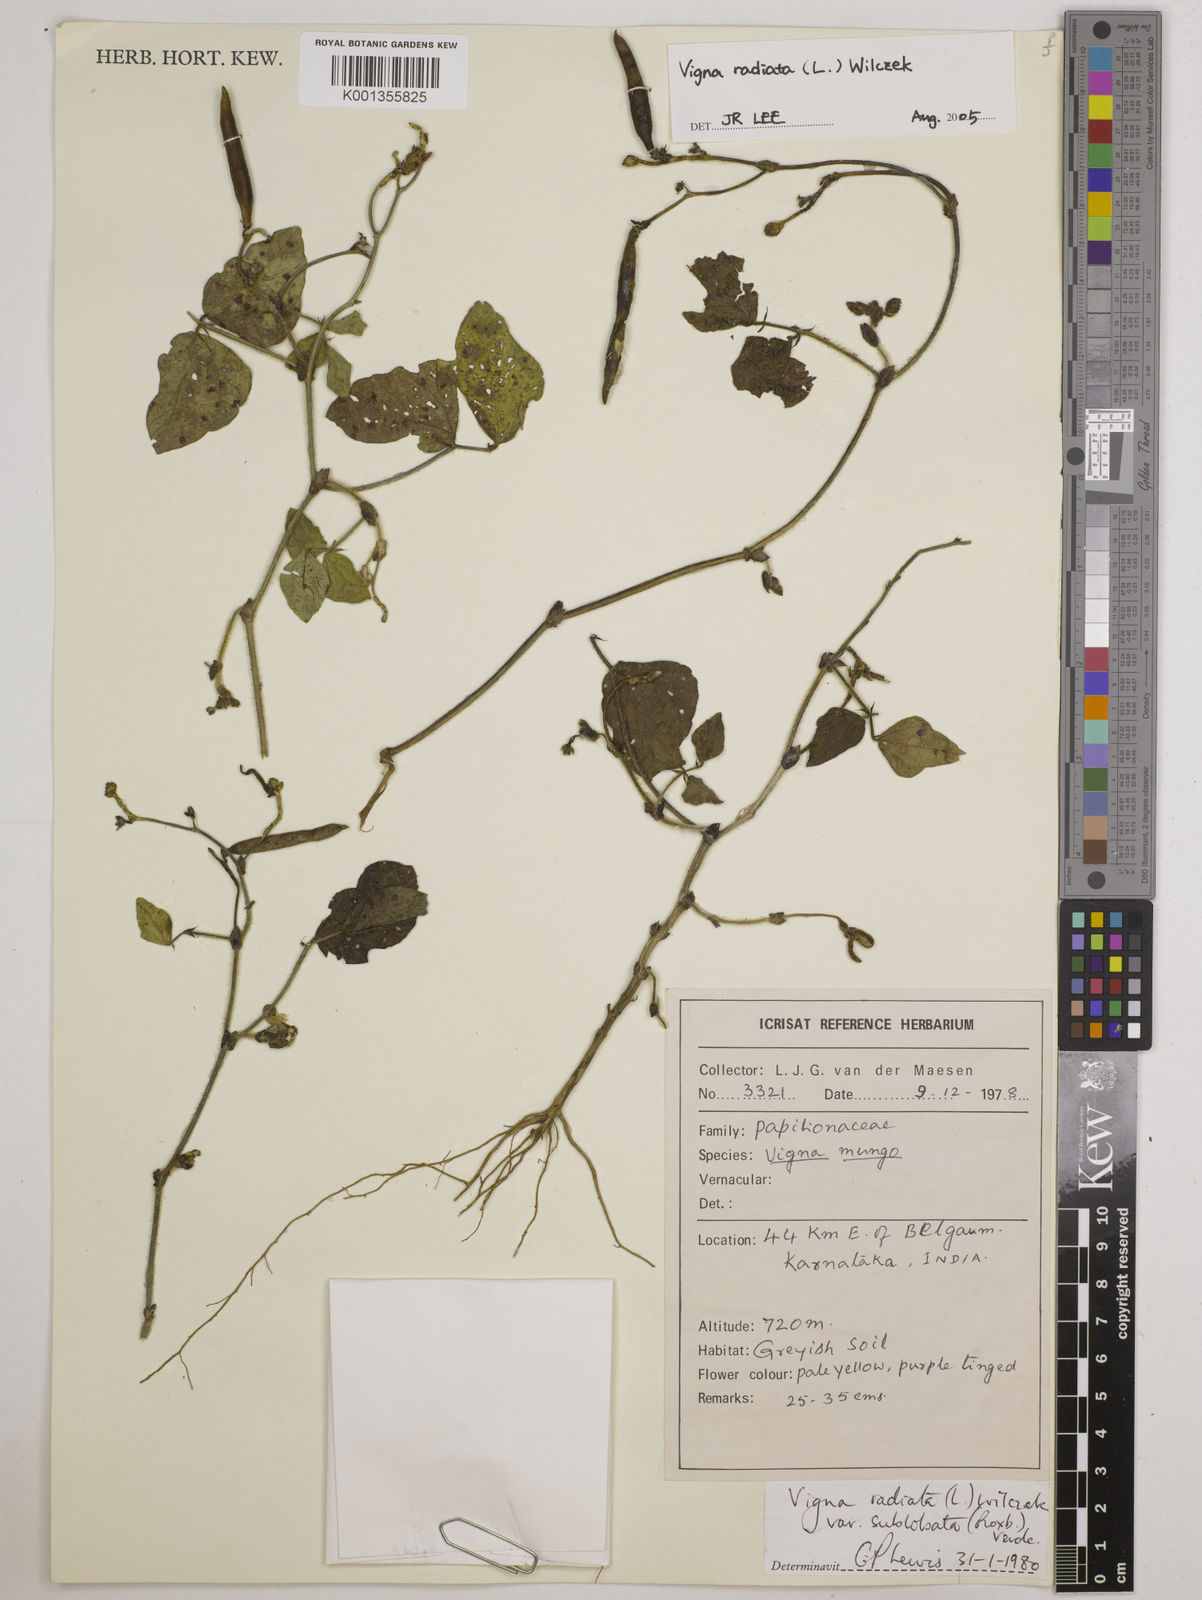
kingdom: Plantae
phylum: Tracheophyta
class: Magnoliopsida
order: Fabales
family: Fabaceae
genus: Vigna
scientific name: Vigna radiata
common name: Mung-bean
